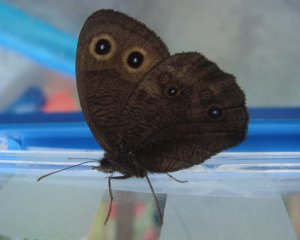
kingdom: Animalia
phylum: Arthropoda
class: Insecta
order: Lepidoptera
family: Nymphalidae
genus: Cercyonis
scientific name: Cercyonis pegala
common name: Common Wood-Nymph
